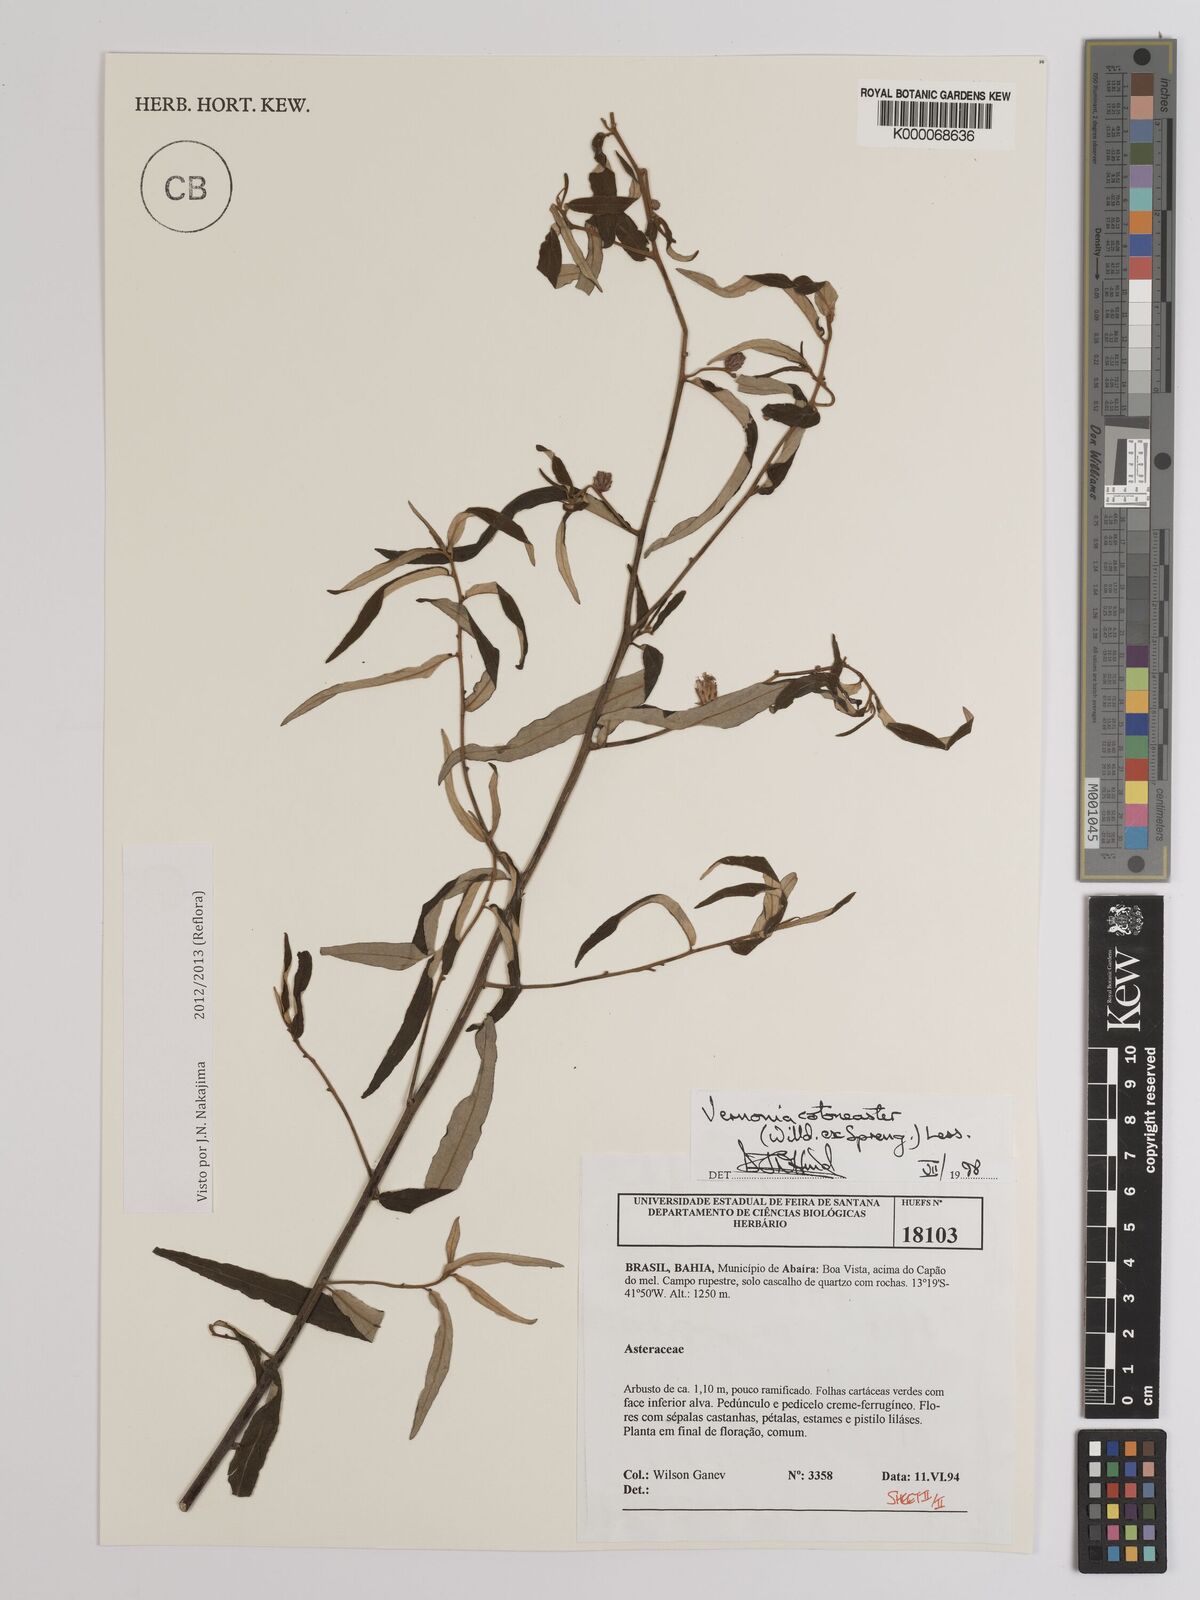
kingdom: Plantae
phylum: Tracheophyta
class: Magnoliopsida
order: Asterales
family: Asteraceae
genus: Lepidaploa
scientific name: Lepidaploa cotoneaster
